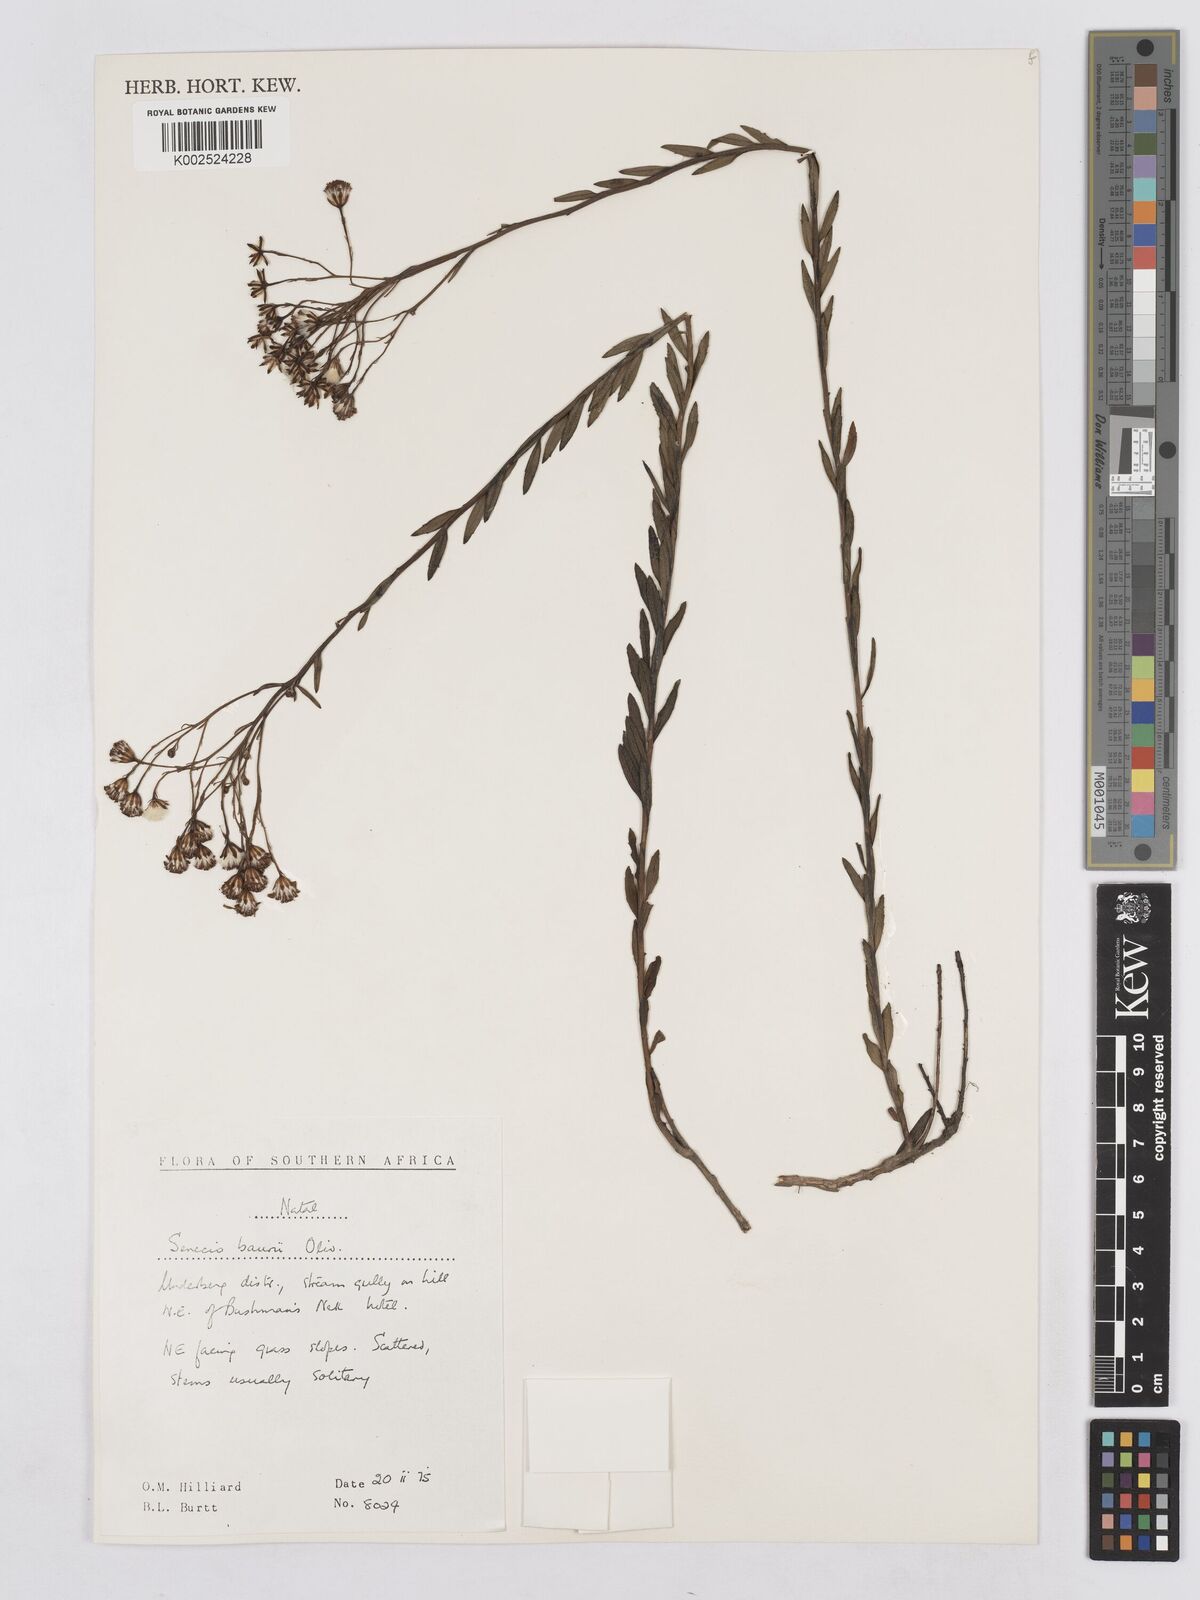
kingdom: Plantae
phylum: Tracheophyta
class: Magnoliopsida
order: Asterales
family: Asteraceae
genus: Senecio
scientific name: Senecio baurii
